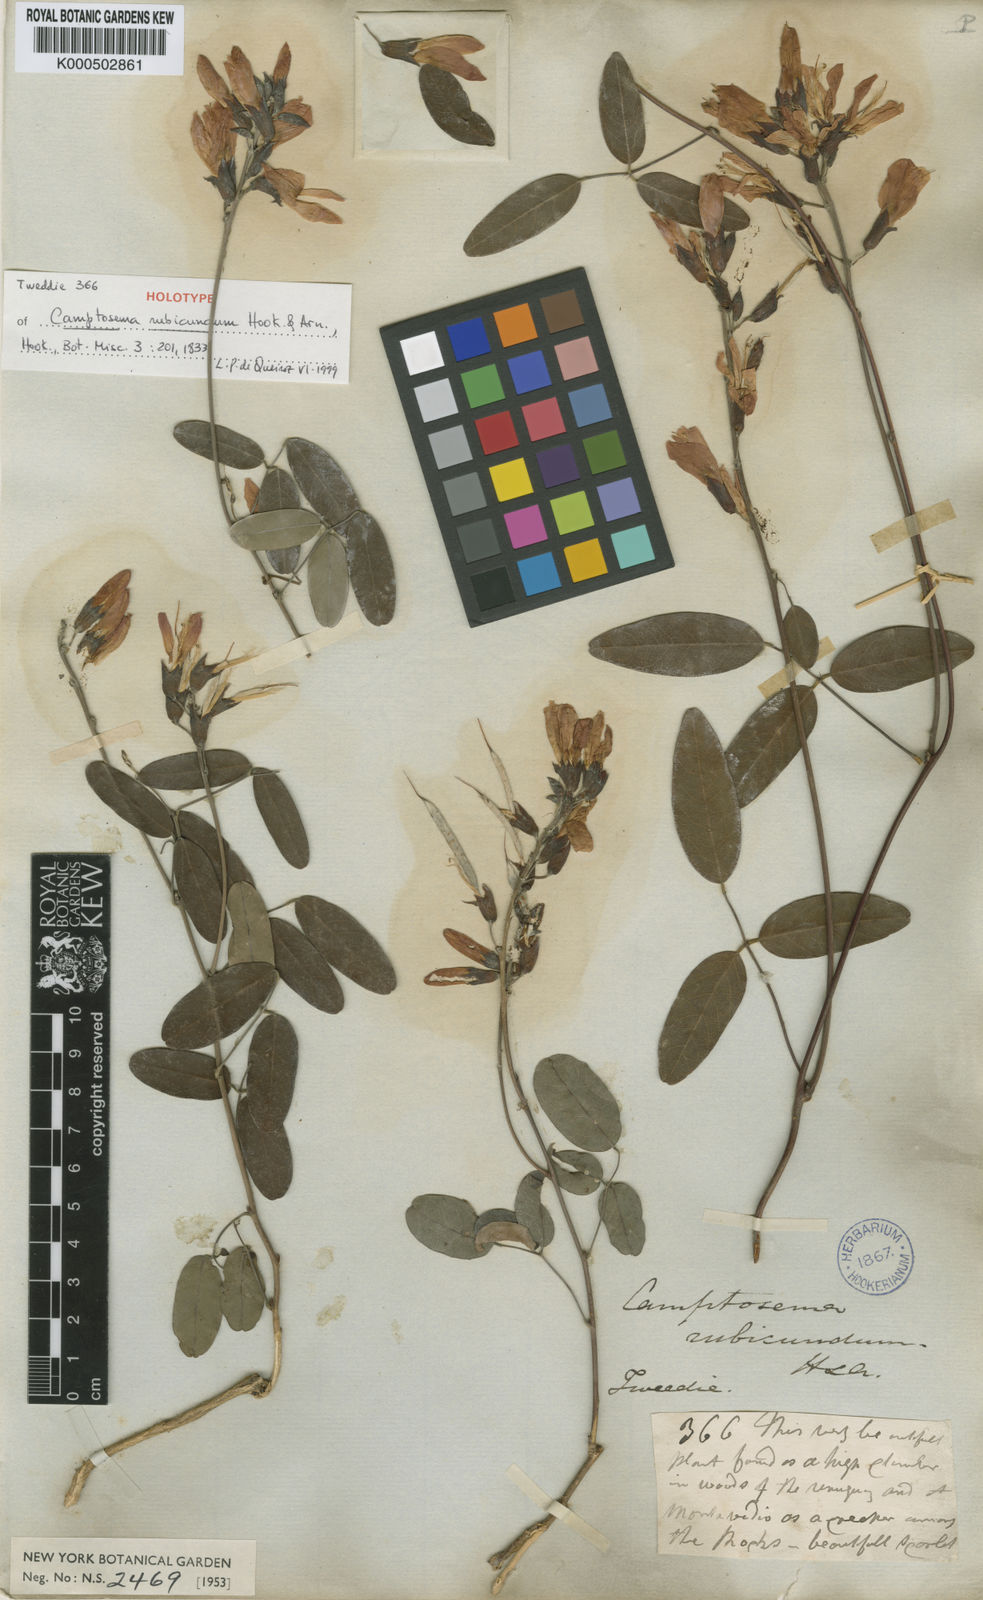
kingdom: Plantae
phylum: Tracheophyta
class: Magnoliopsida
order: Fabales
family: Fabaceae
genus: Camptosema
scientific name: Camptosema rubicundum
